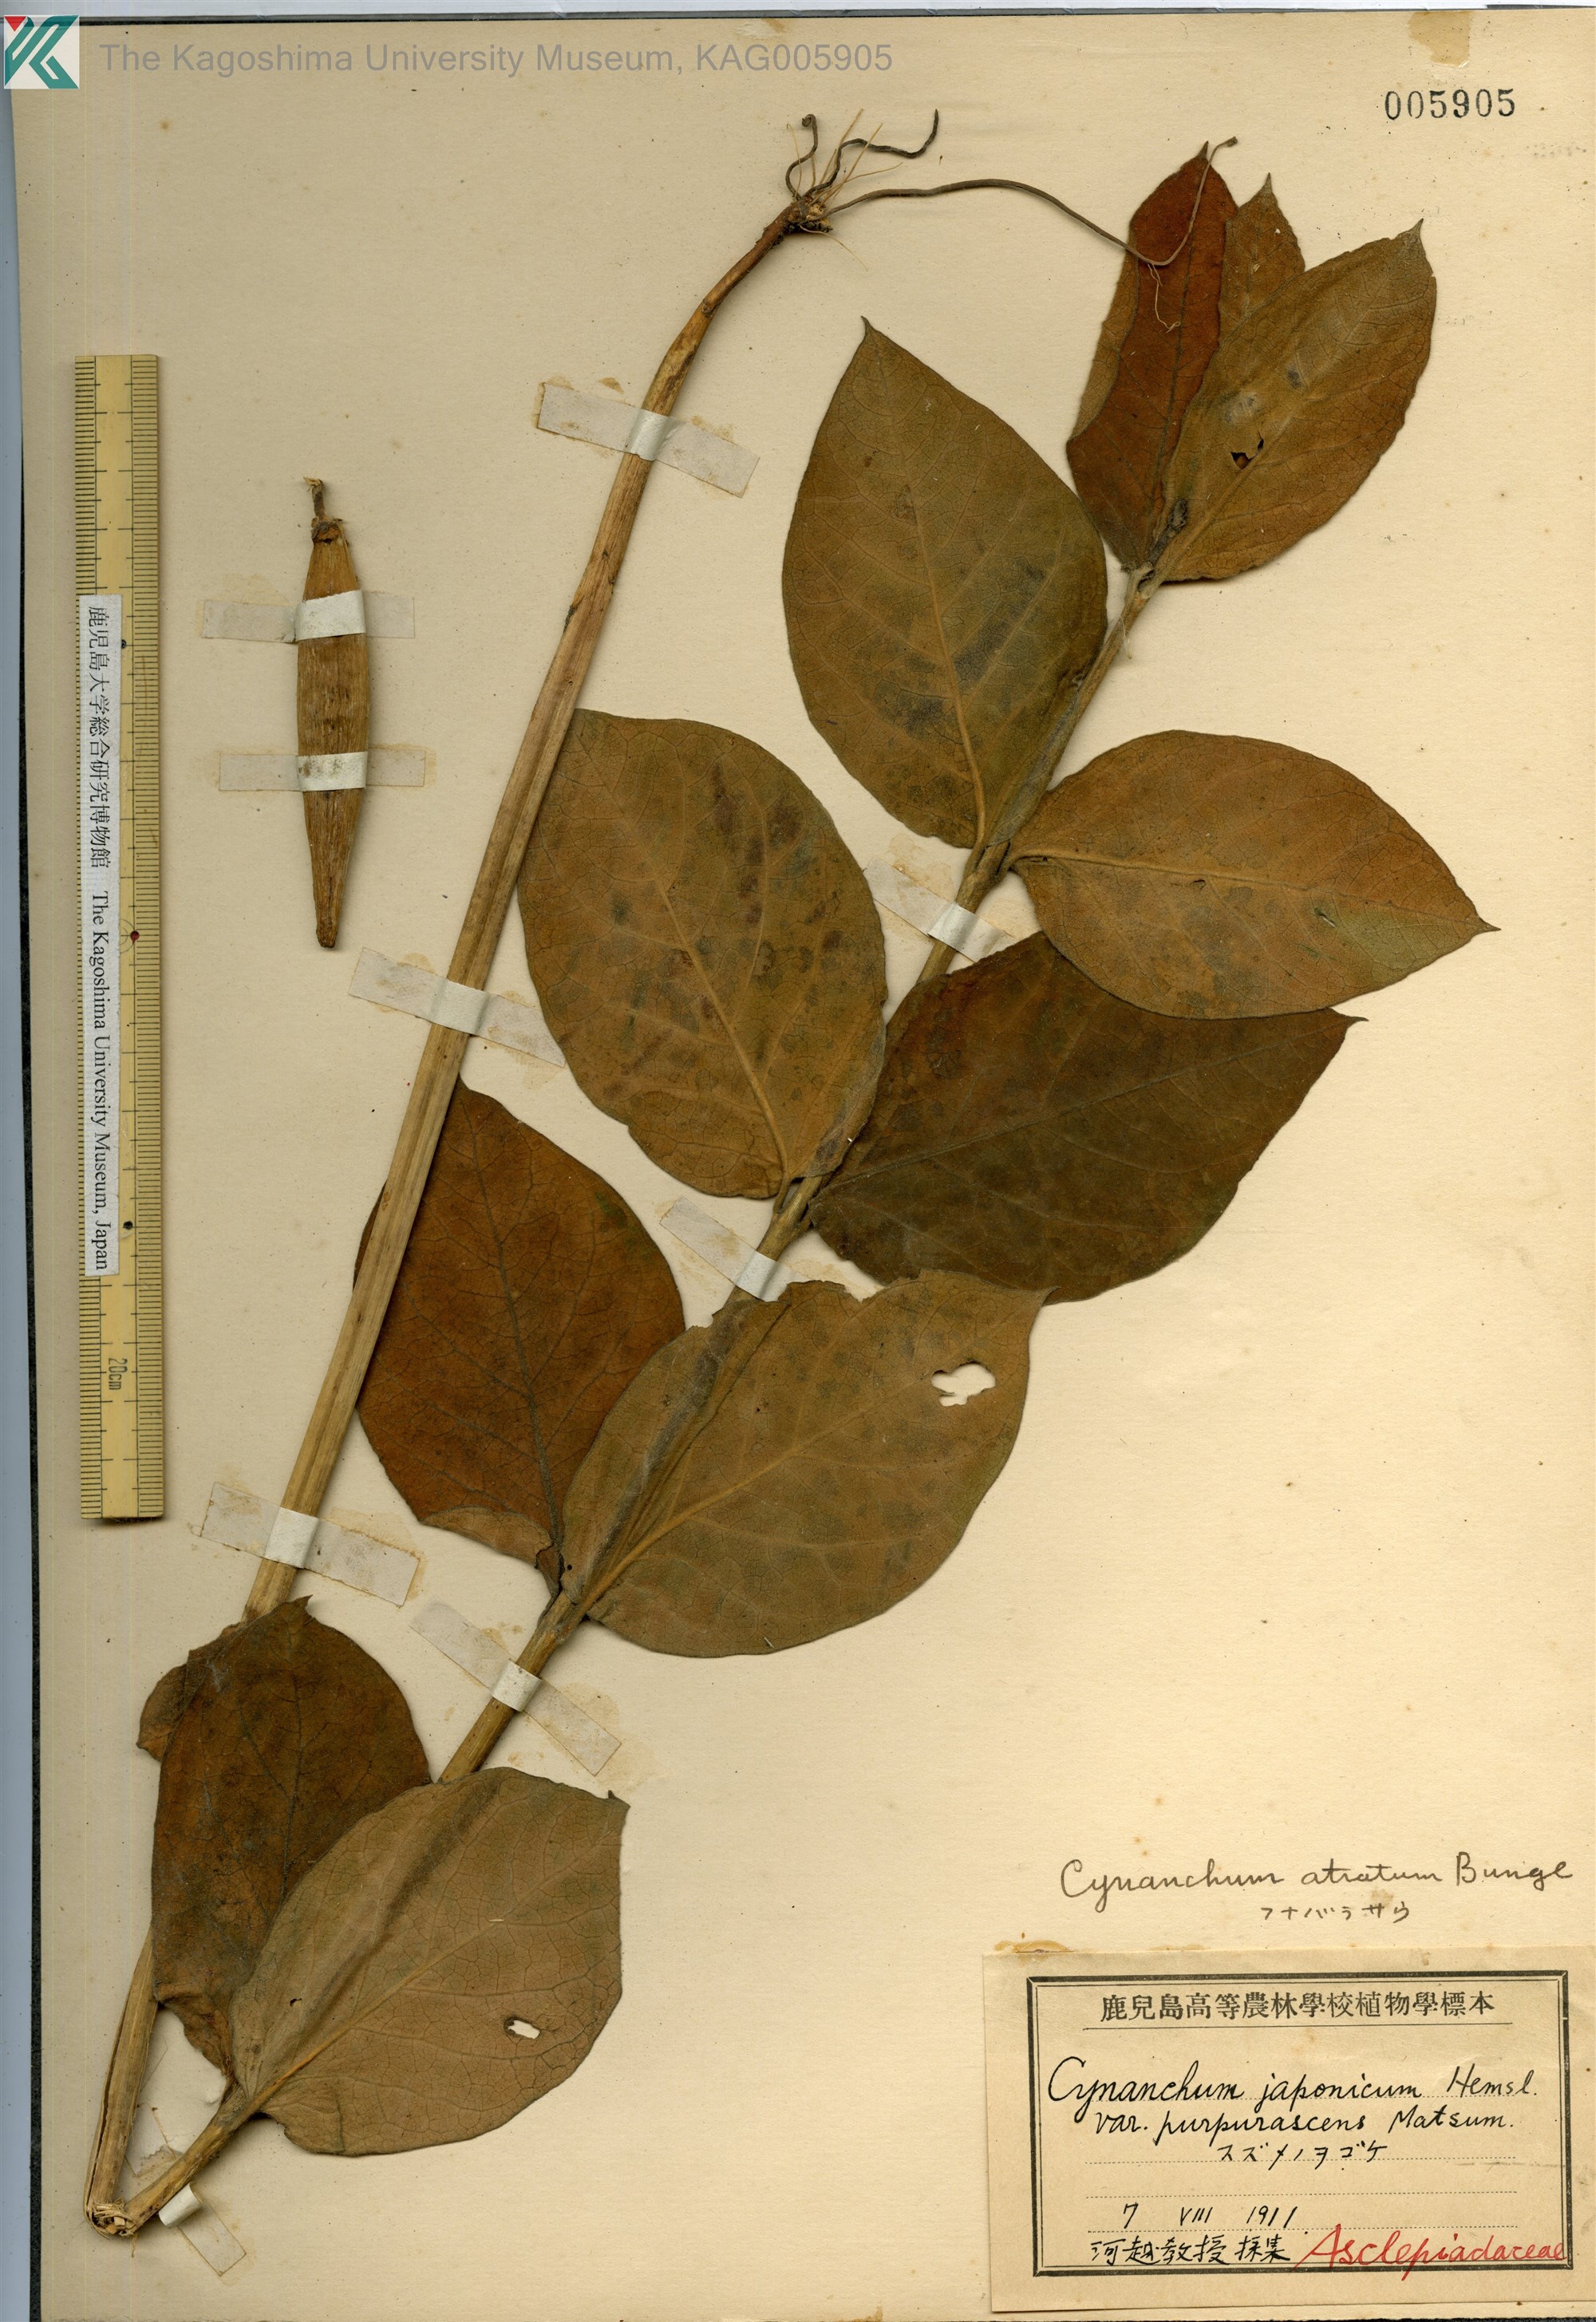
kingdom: Plantae
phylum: Tracheophyta
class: Magnoliopsida
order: Gentianales
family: Apocynaceae
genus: Vincetoxicum
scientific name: Vincetoxicum atratum
